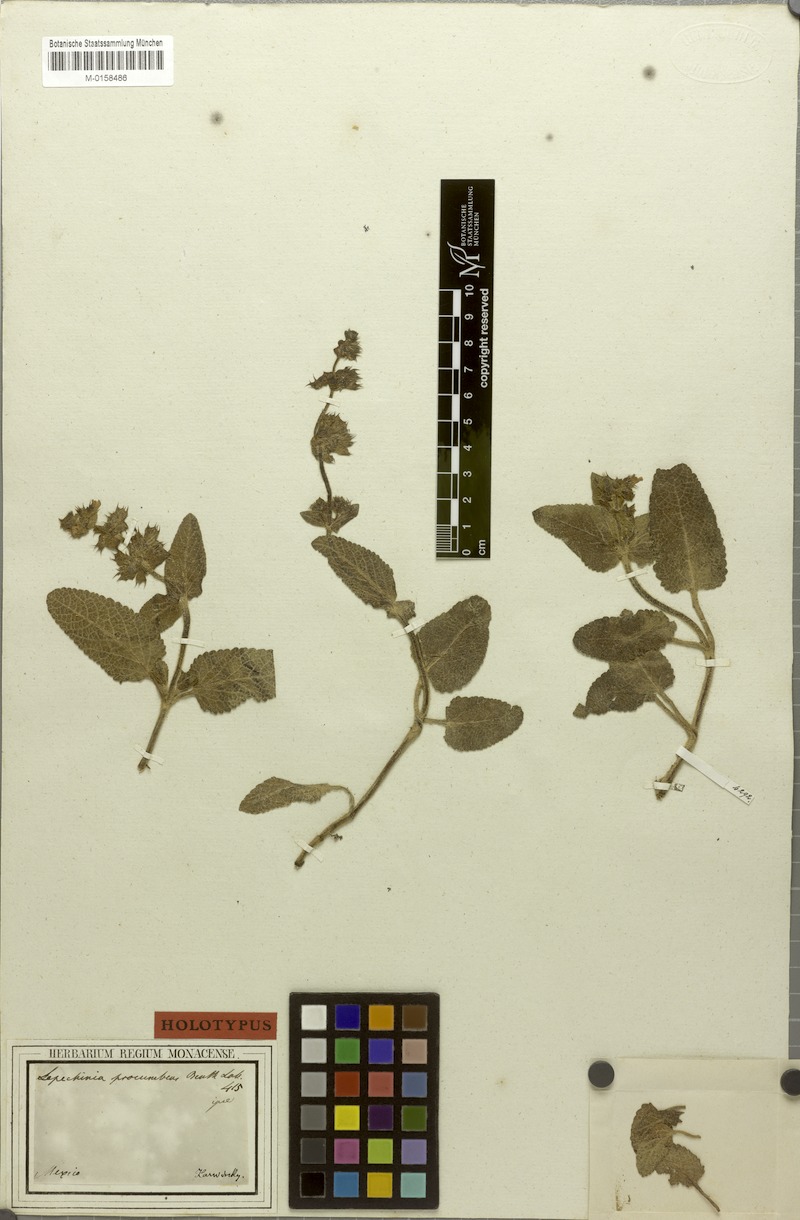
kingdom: Plantae
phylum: Tracheophyta
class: Magnoliopsida
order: Lamiales
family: Lamiaceae
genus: Lepechinia
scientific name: Lepechinia schiedeana
